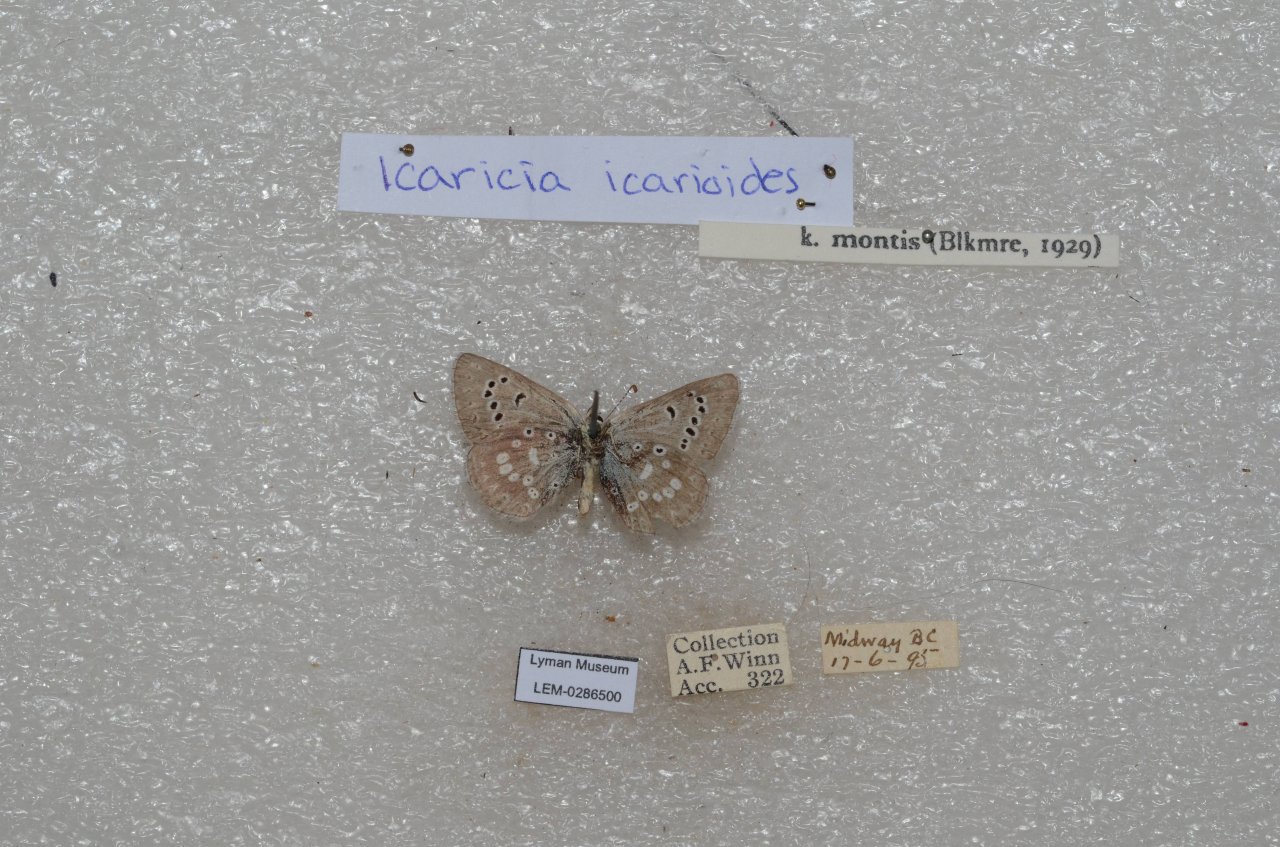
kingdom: Animalia
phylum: Arthropoda
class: Insecta
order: Lepidoptera
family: Lycaenidae
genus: Icaricia
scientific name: Icaricia icarioides
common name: Boisduval's Blue
